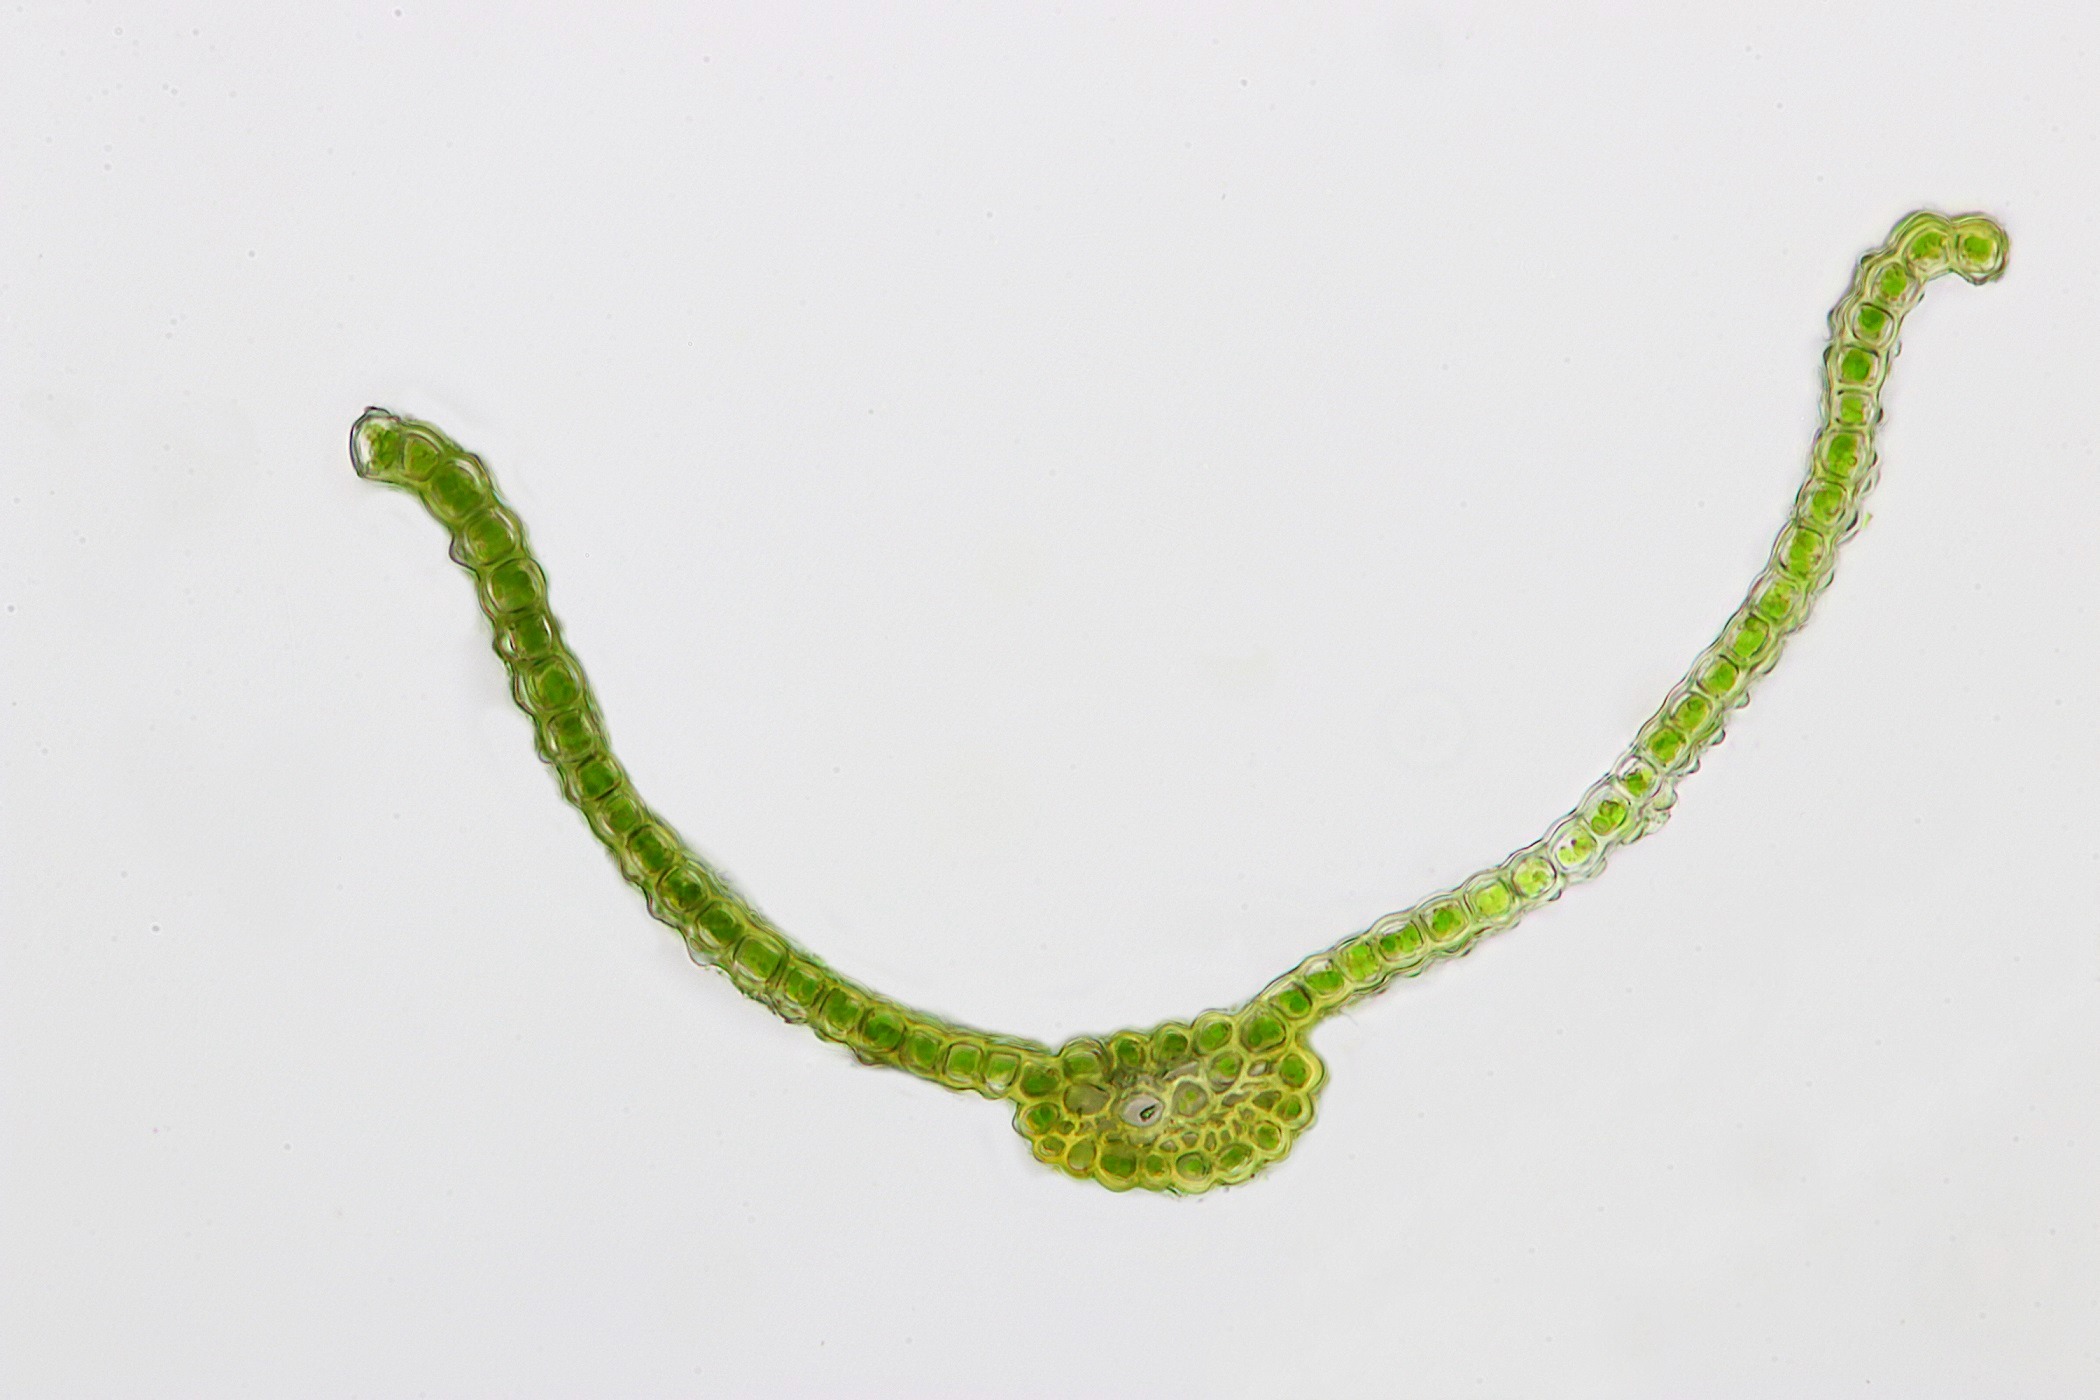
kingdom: Plantae
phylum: Bryophyta
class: Bryopsida
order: Pottiales
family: Pottiaceae
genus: Geheebia
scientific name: Geheebia siccula
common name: Siciliansk kalktuemos
